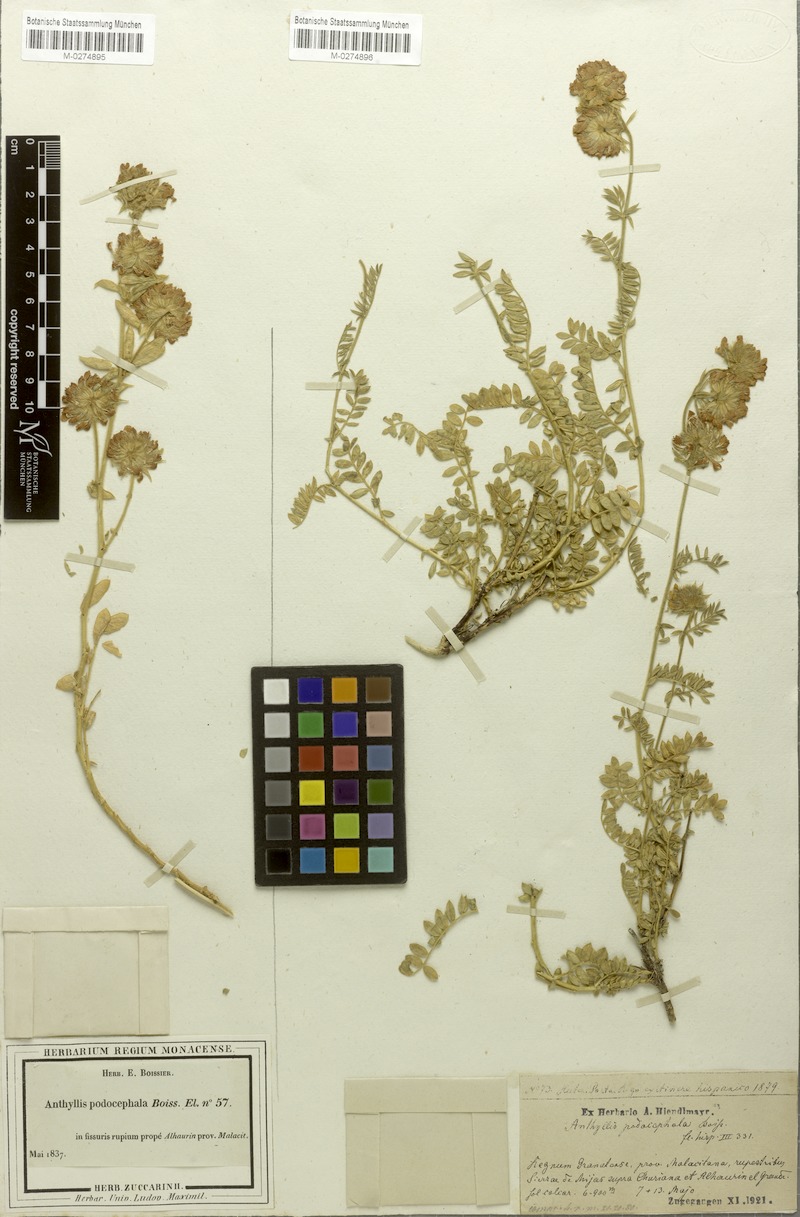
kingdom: Plantae
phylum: Tracheophyta
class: Magnoliopsida
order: Fabales
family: Fabaceae
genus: Anthyllis
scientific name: Anthyllis polycephala
